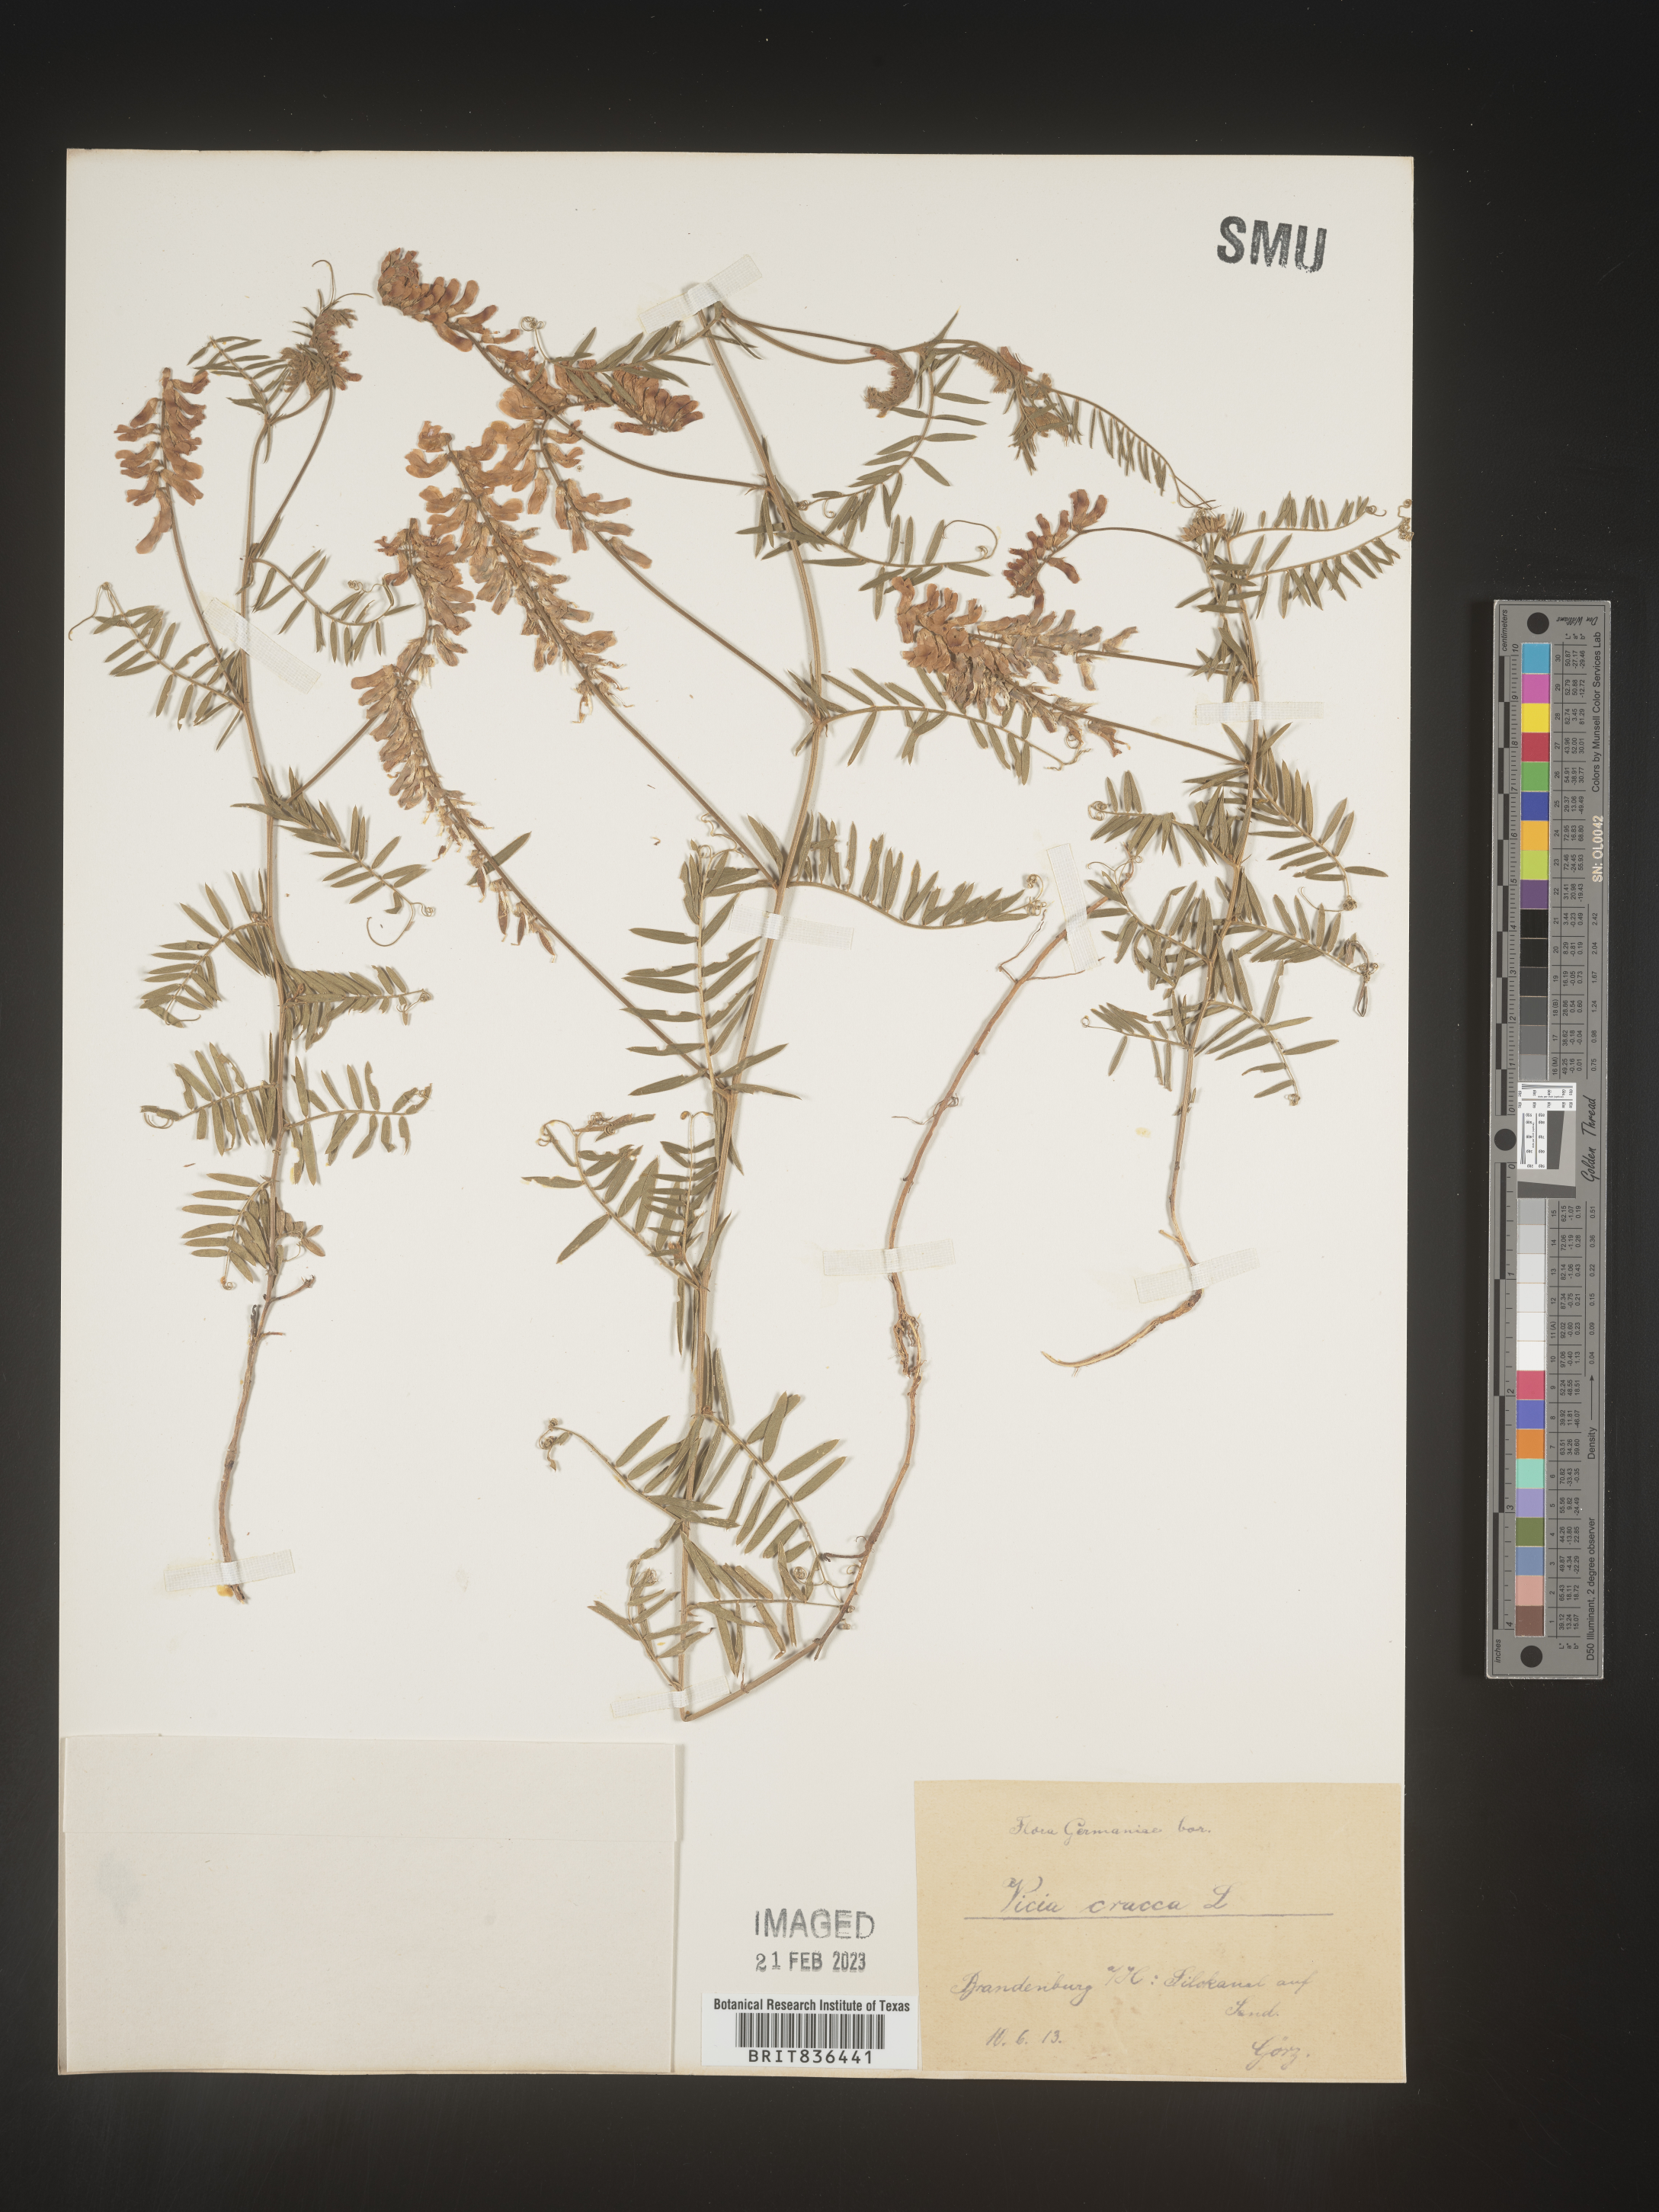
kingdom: Plantae
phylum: Tracheophyta
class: Magnoliopsida
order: Fabales
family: Fabaceae
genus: Vicia
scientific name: Vicia
